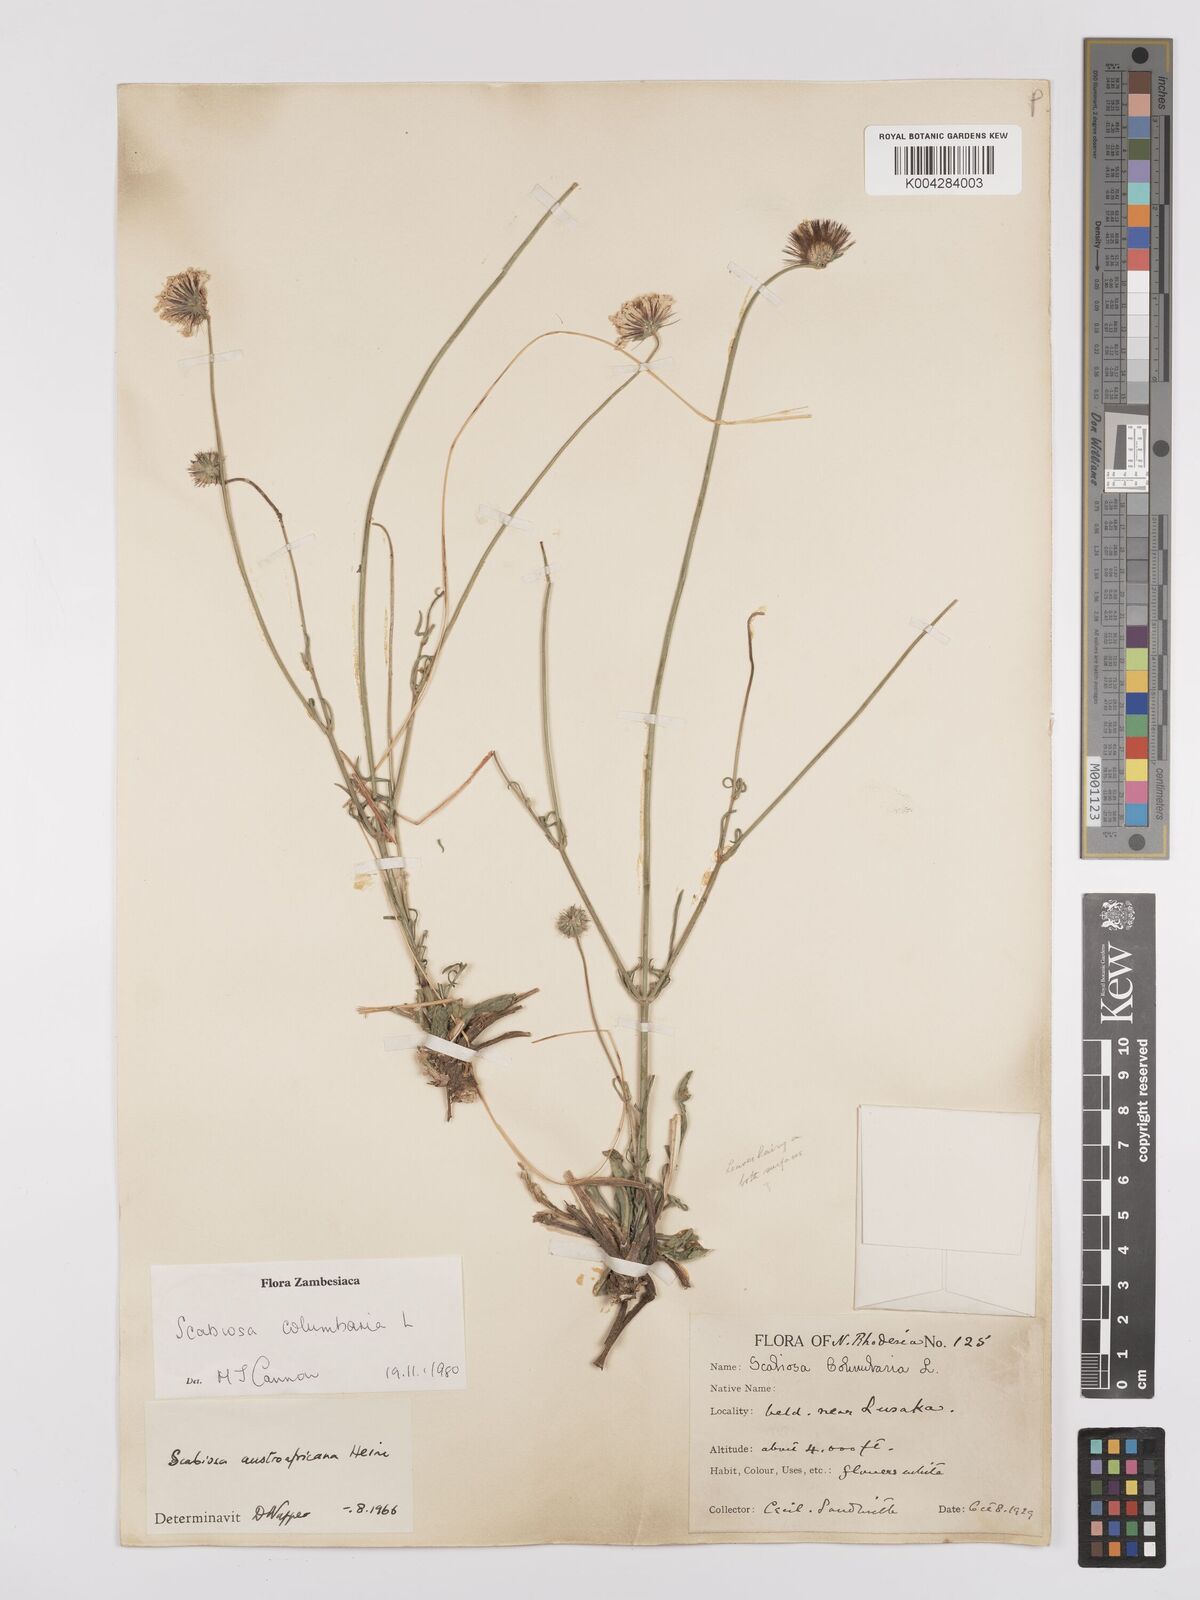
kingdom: Plantae
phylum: Tracheophyta
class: Magnoliopsida
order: Dipsacales
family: Caprifoliaceae
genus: Scabiosa
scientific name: Scabiosa austroafricana
